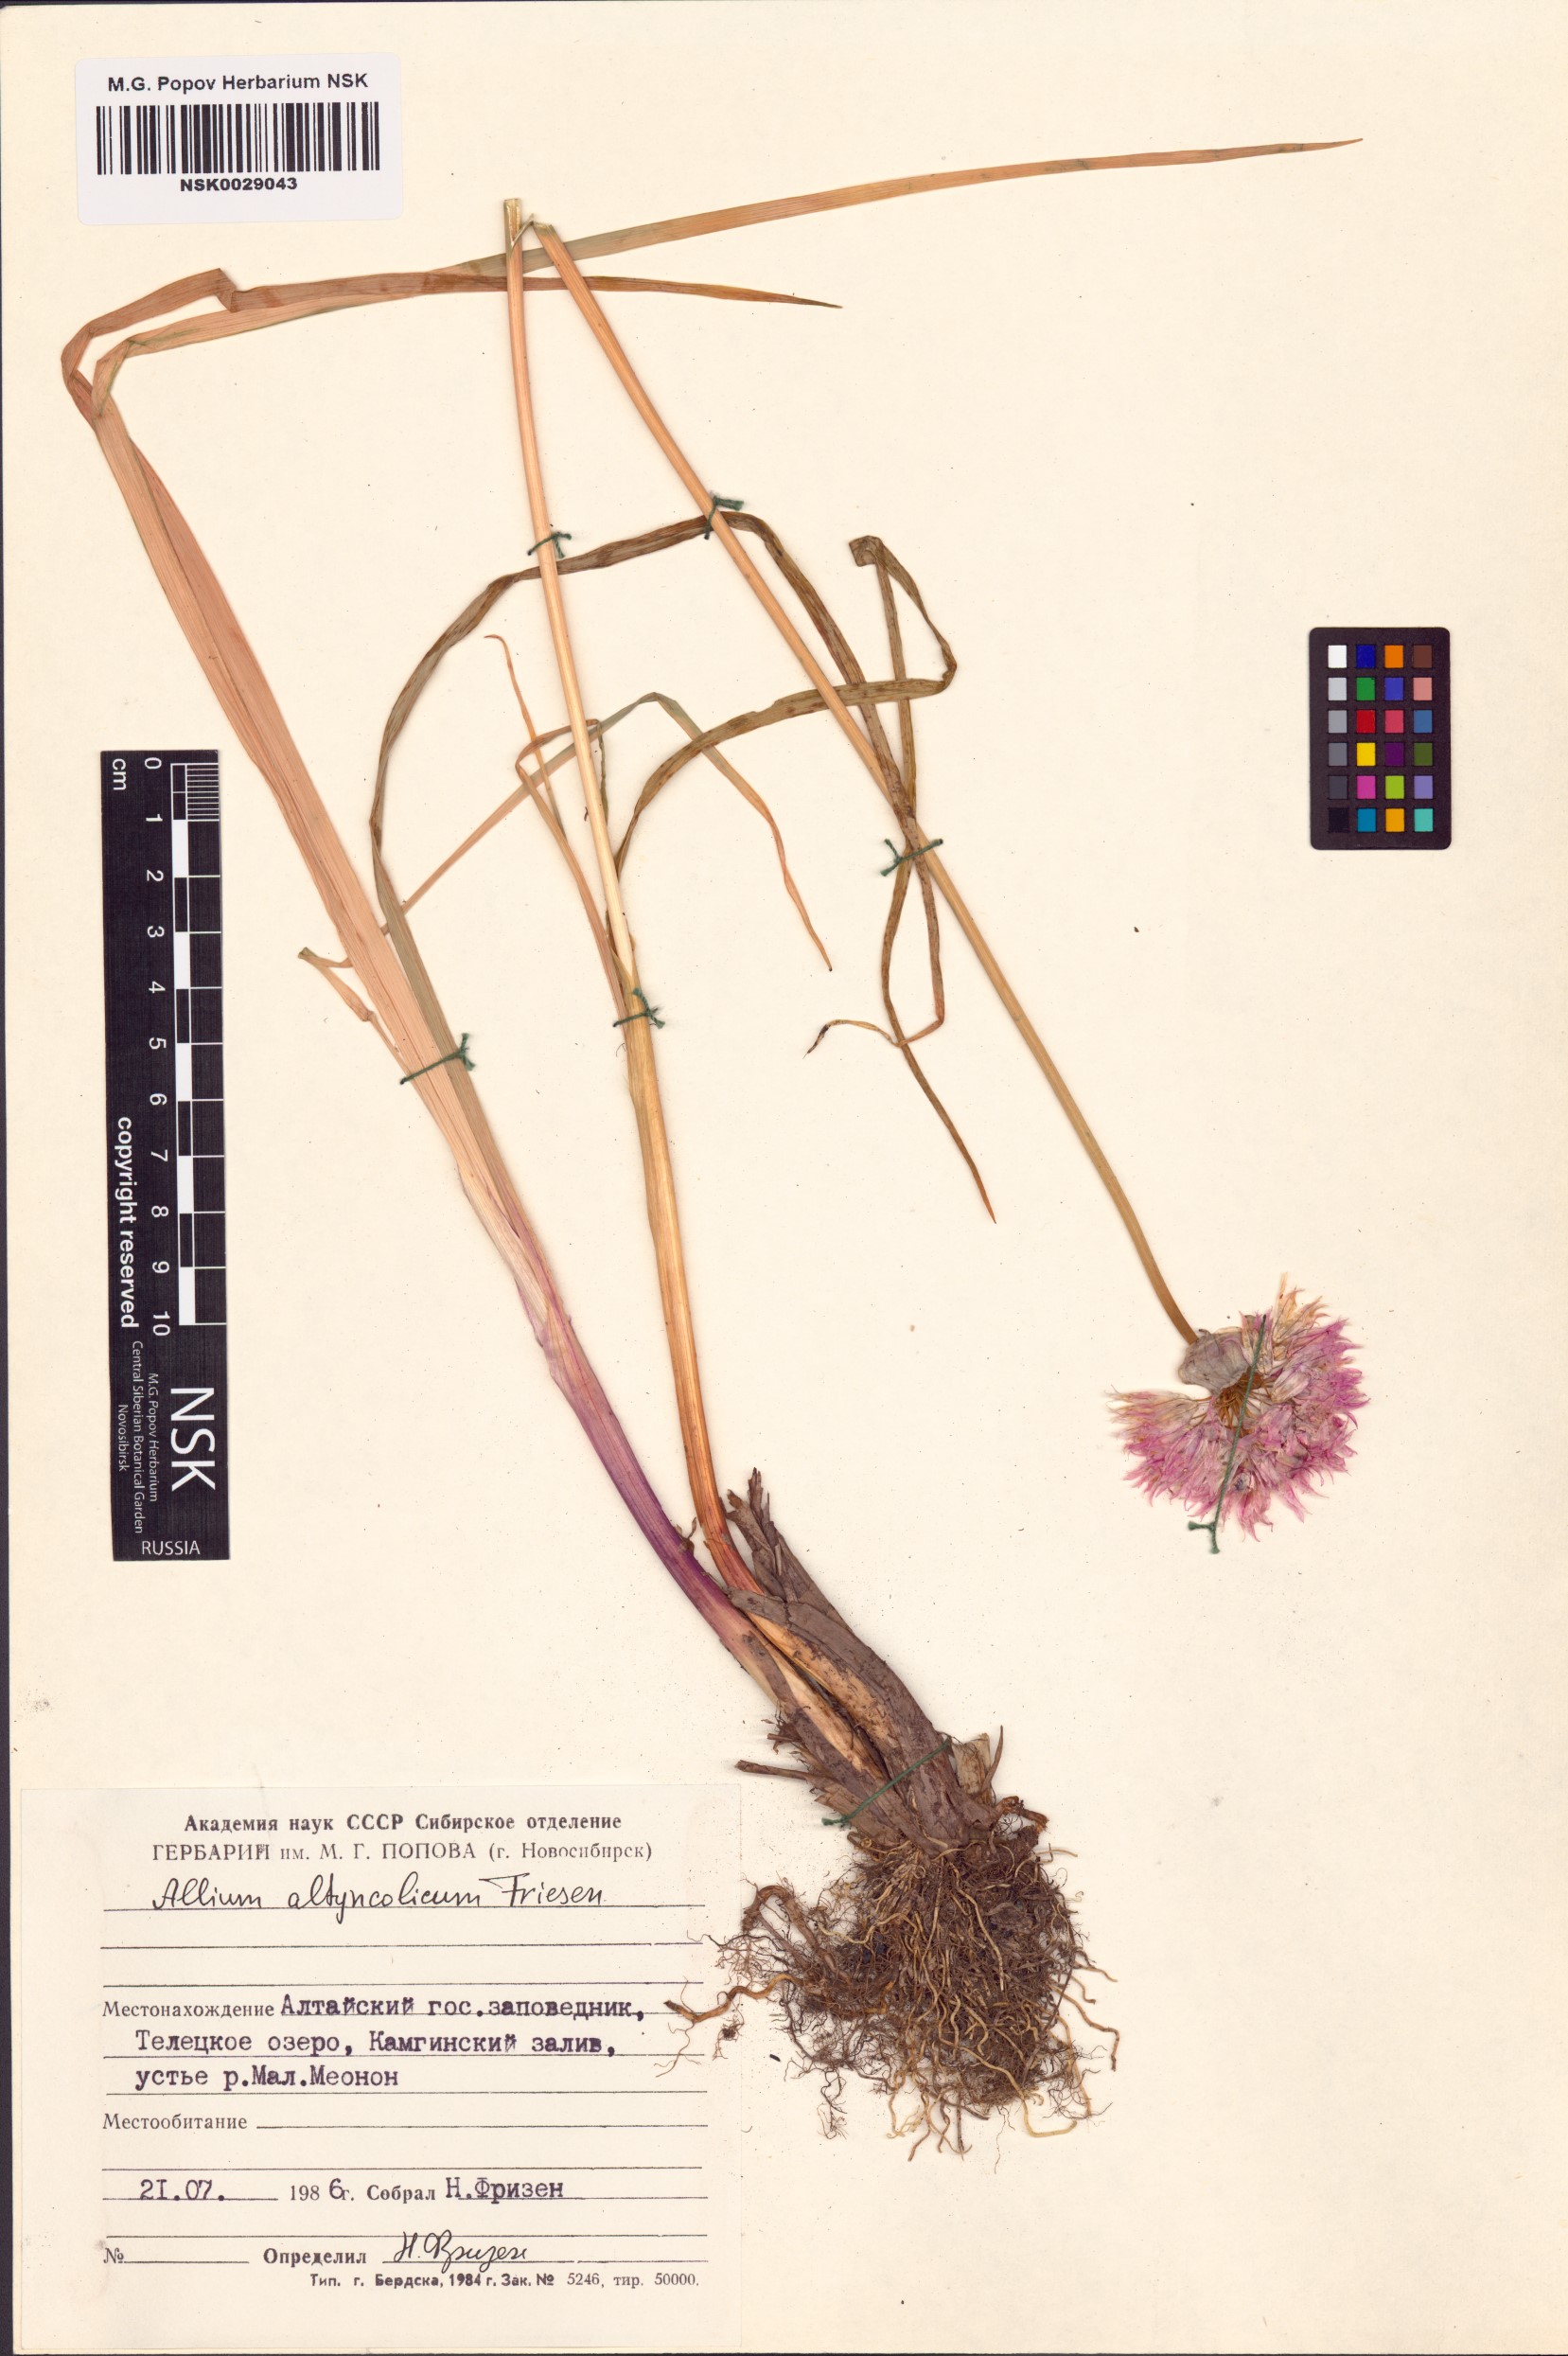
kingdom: Plantae
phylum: Tracheophyta
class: Liliopsida
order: Asparagales
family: Amaryllidaceae
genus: Allium
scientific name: Allium altyncolicum
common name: Altynkol chive
